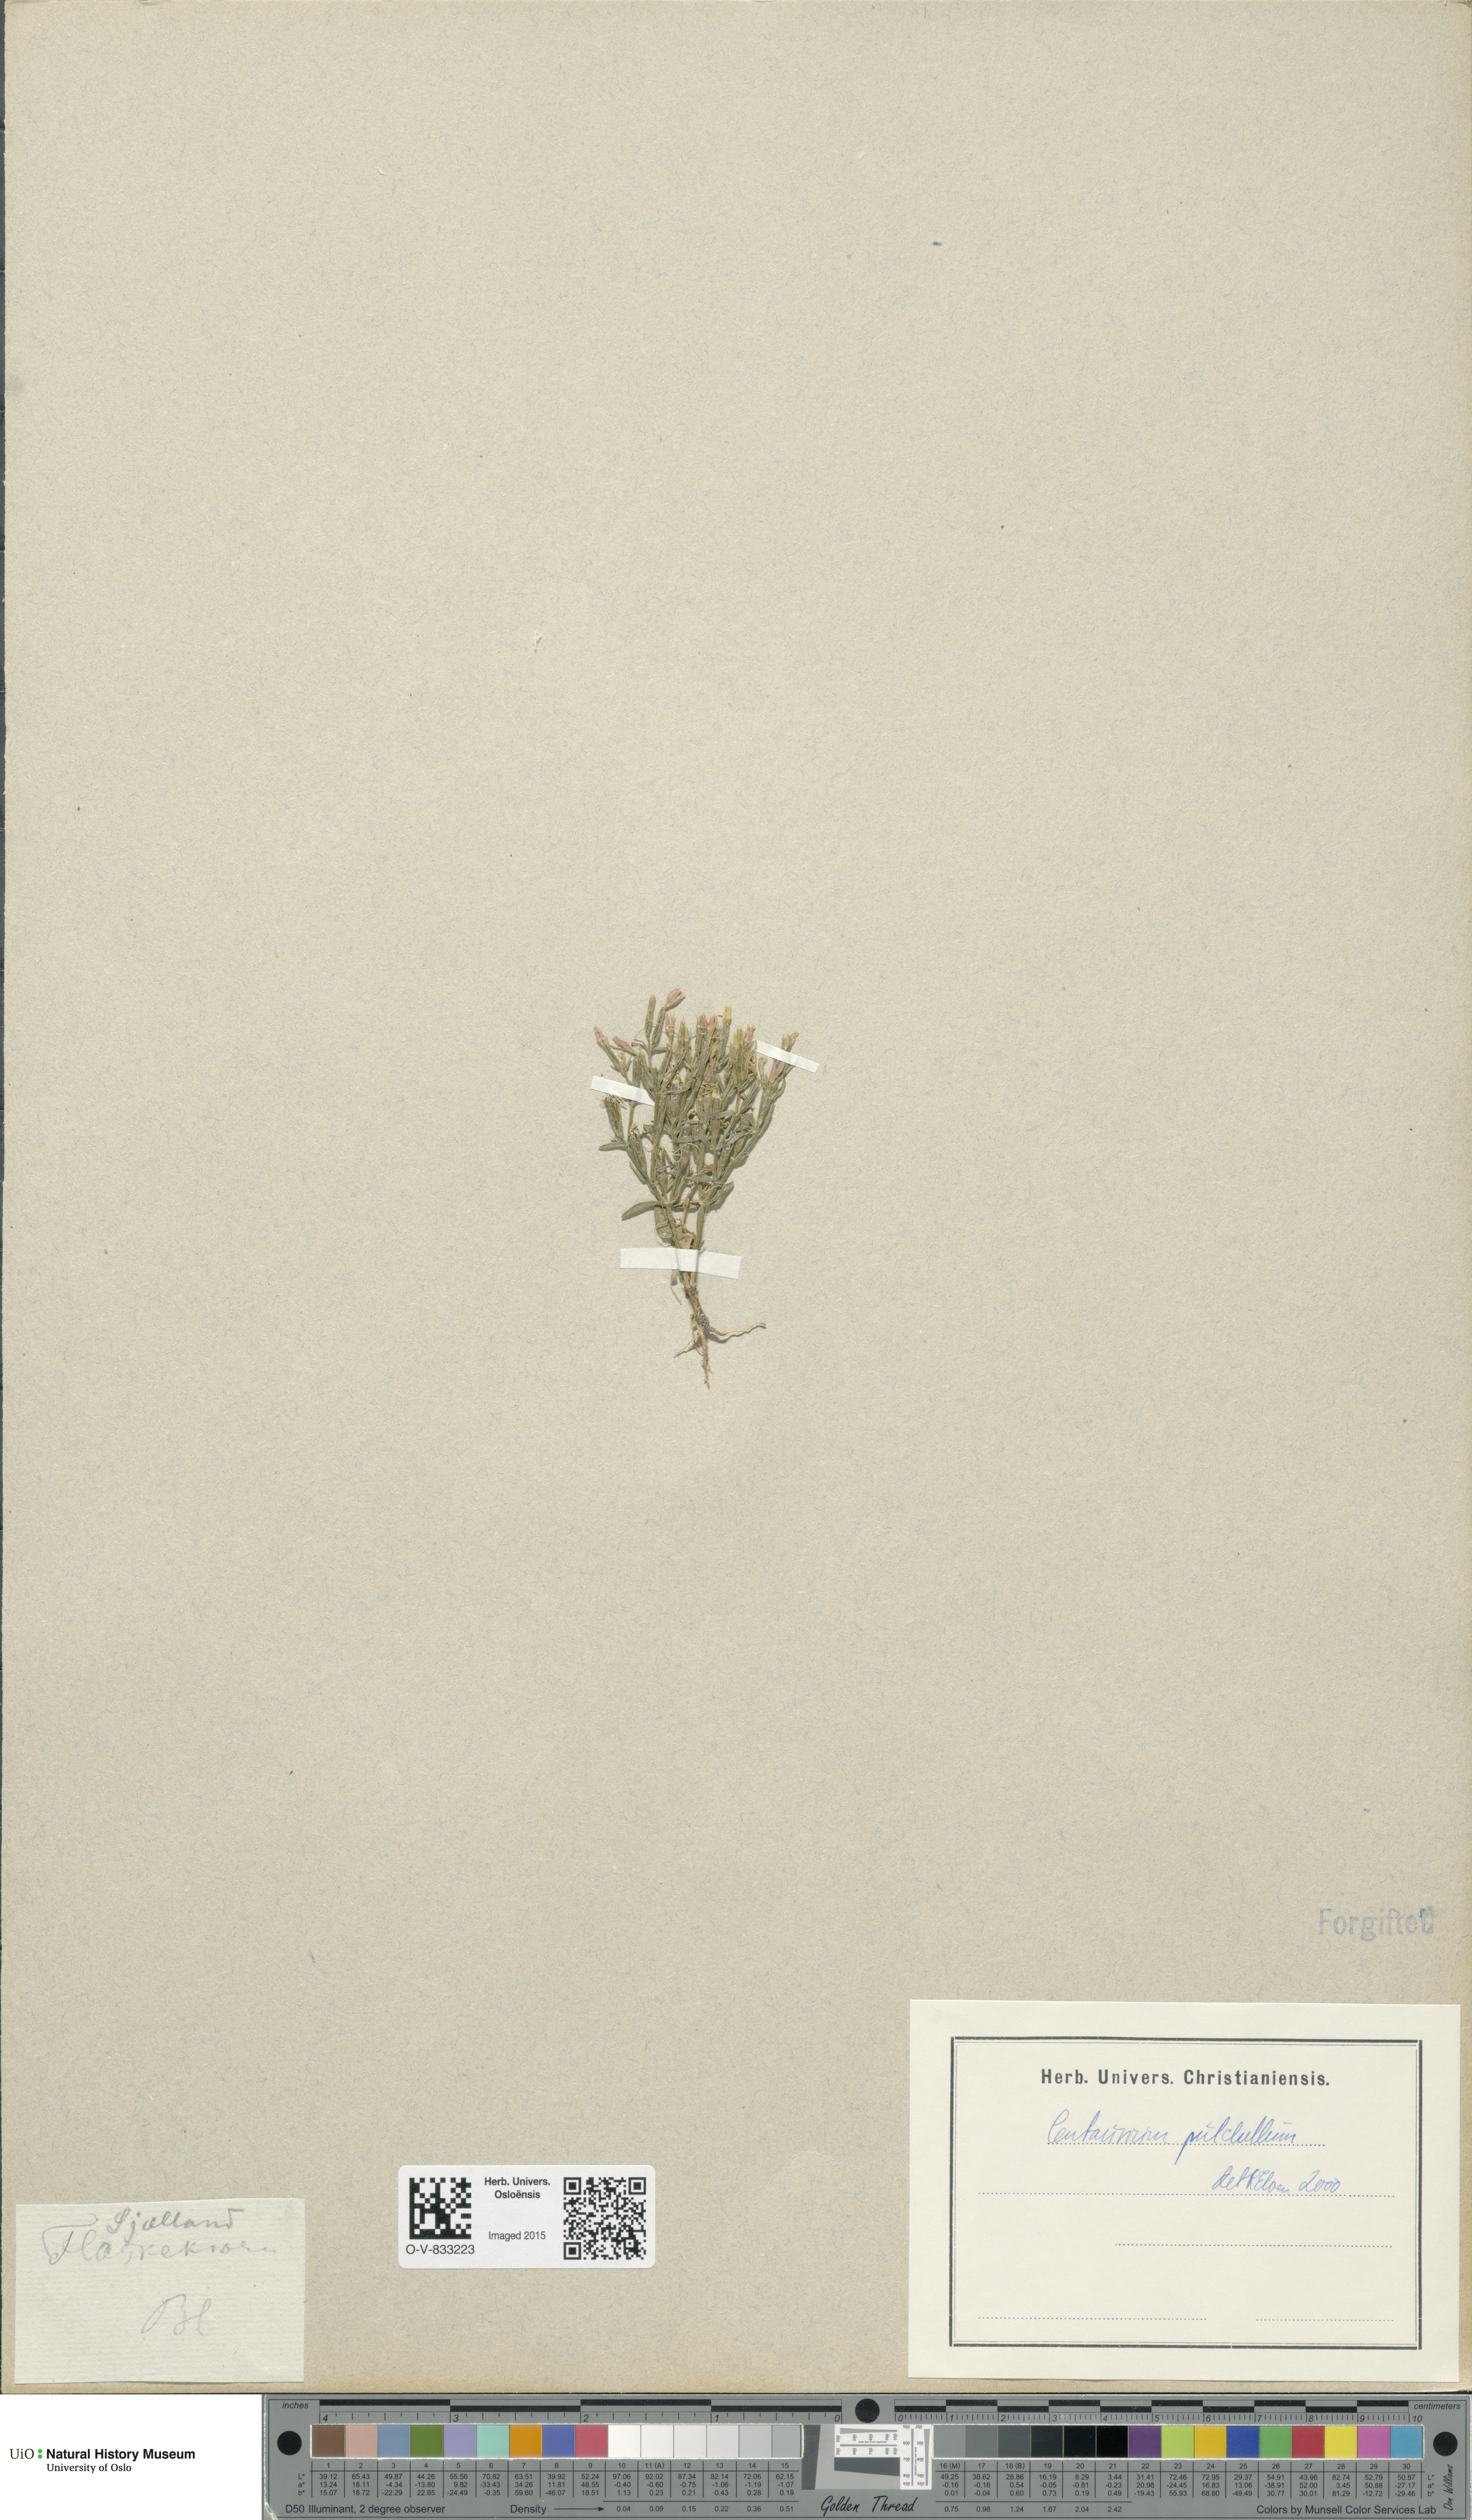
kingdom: Plantae
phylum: Tracheophyta
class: Magnoliopsida
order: Gentianales
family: Gentianaceae
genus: Centaurium
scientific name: Centaurium pulchellum
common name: Lesser centaury
